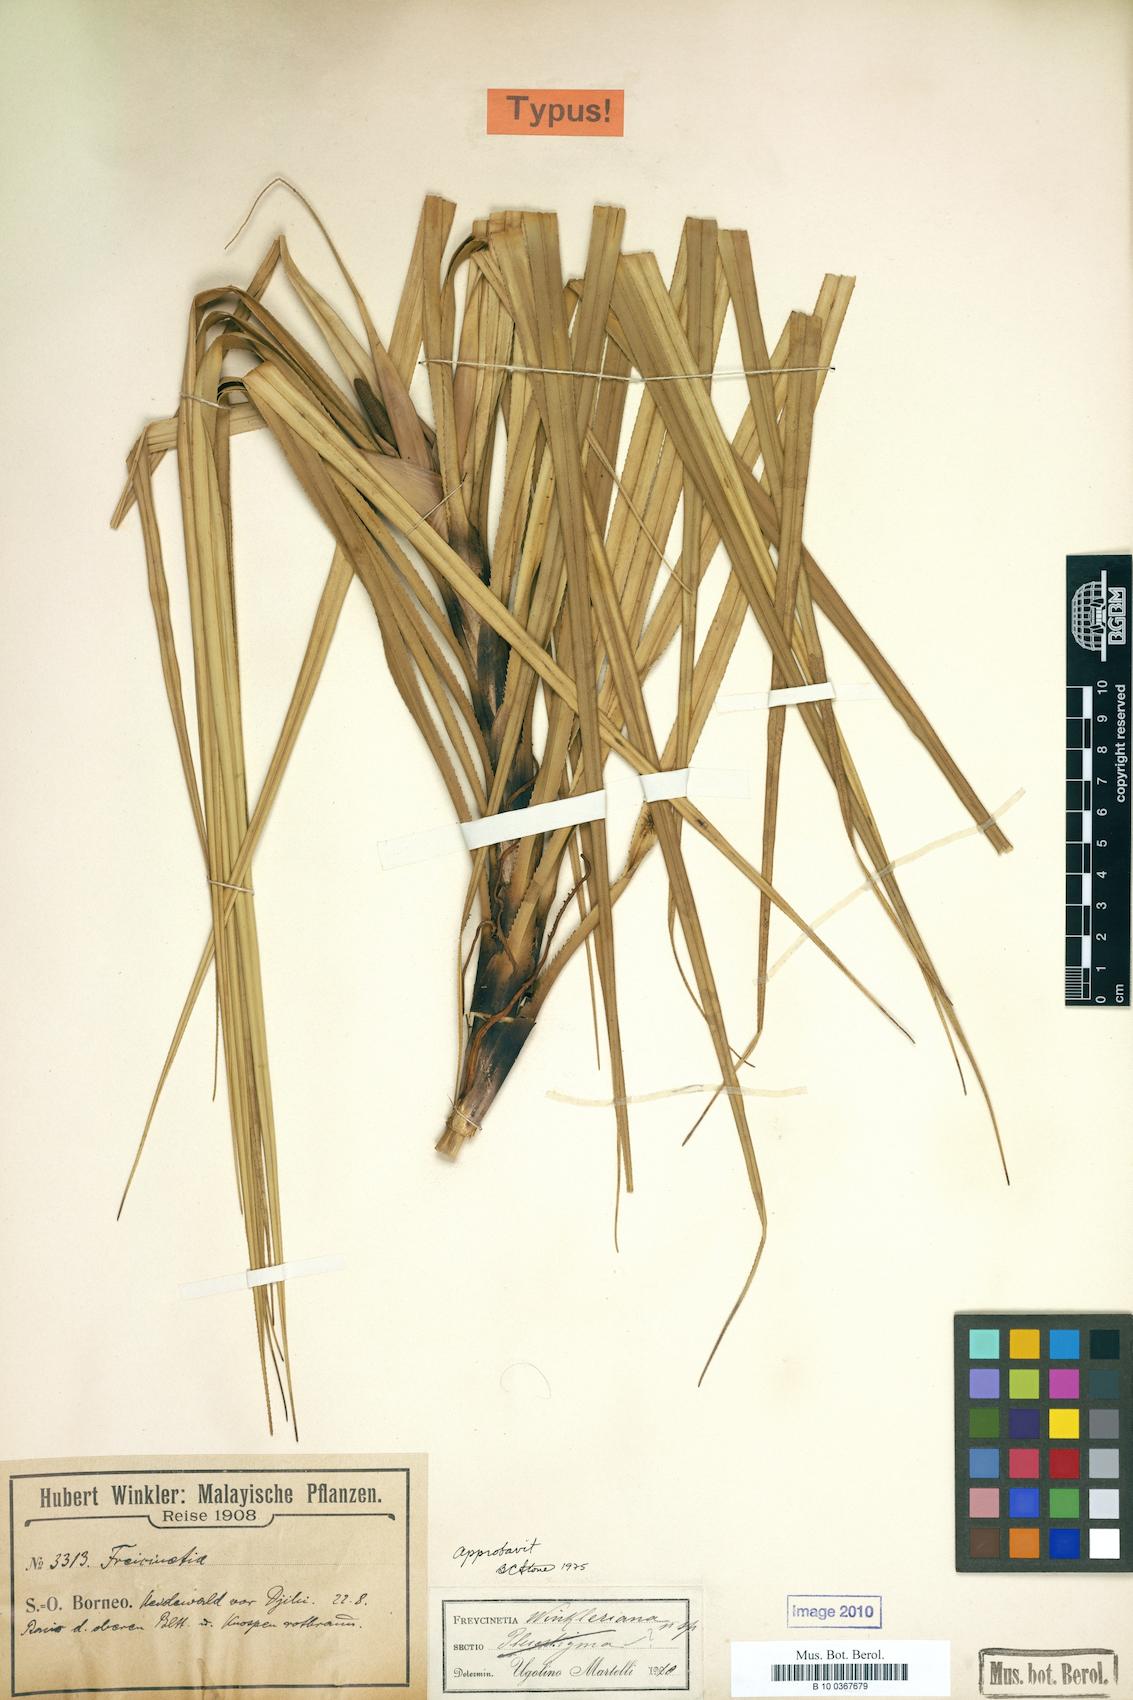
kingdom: Plantae
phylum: Tracheophyta
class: Liliopsida
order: Pandanales
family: Pandanaceae
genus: Freycinetia
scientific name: Freycinetia winkleriana
